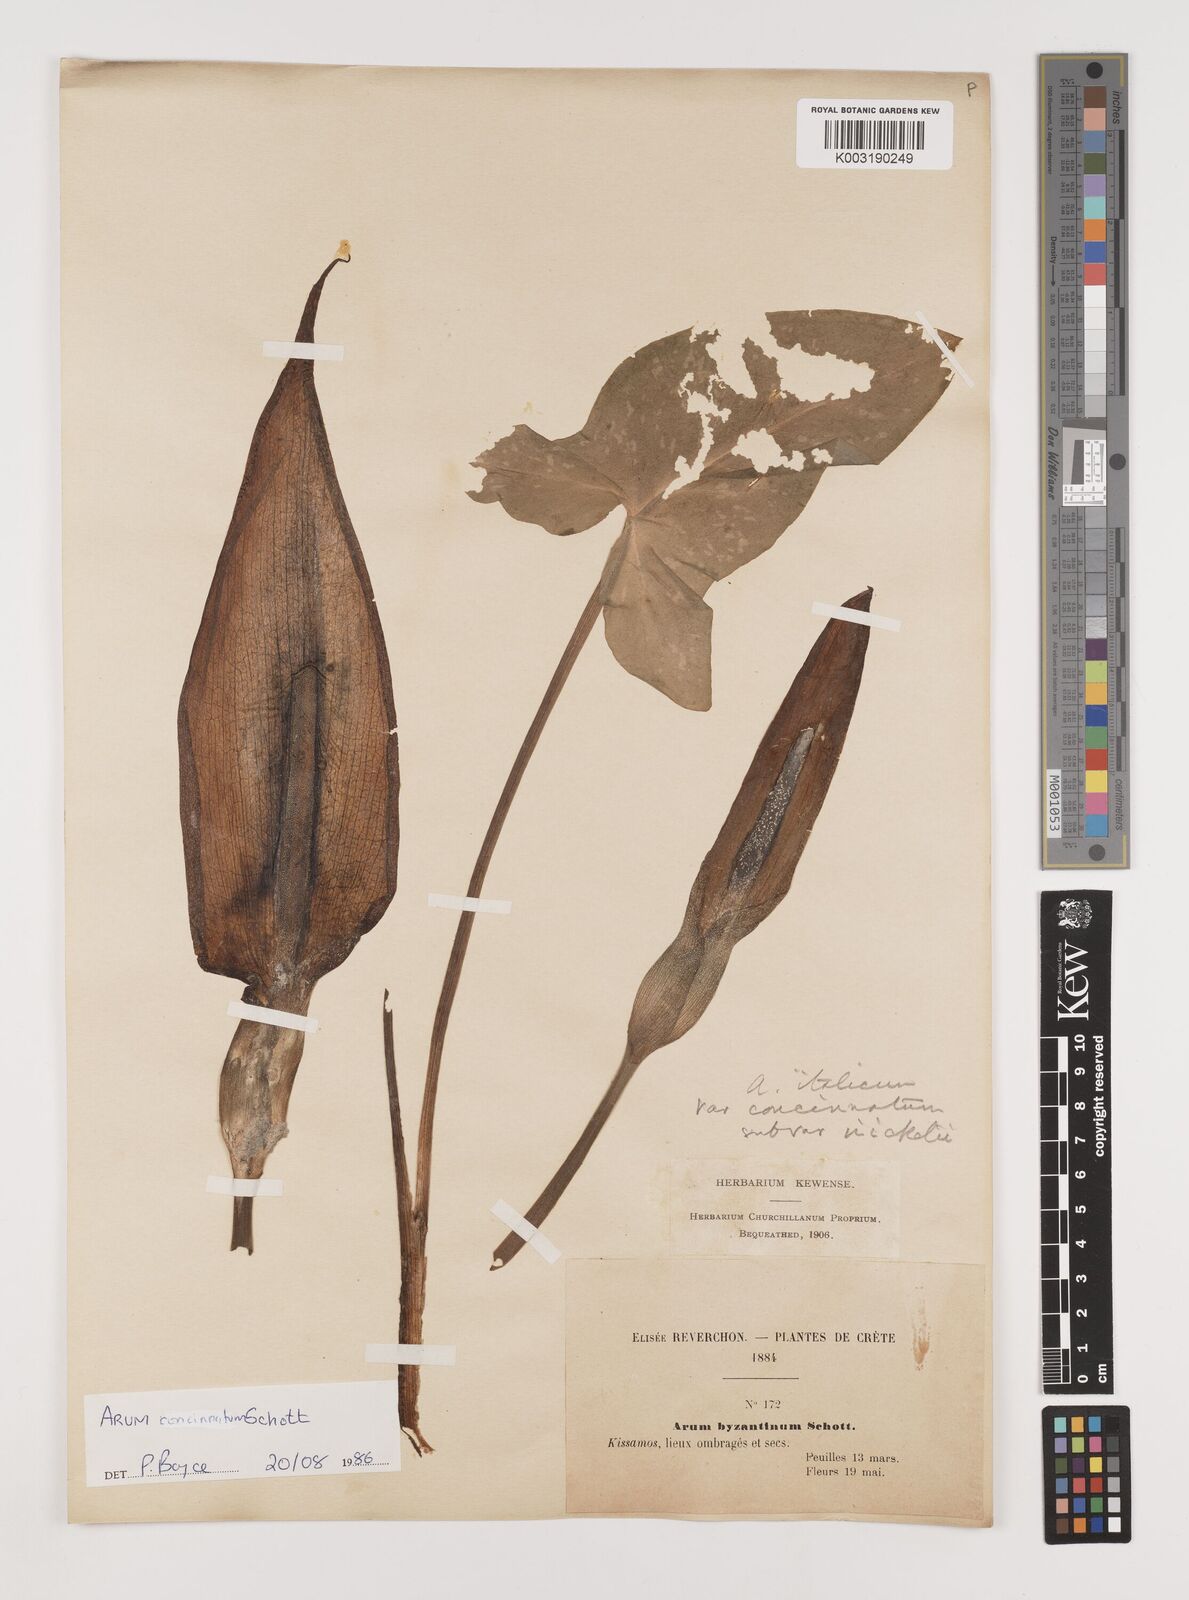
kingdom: Plantae
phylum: Tracheophyta
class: Liliopsida
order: Alismatales
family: Araceae
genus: Arum
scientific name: Arum concinnatum
